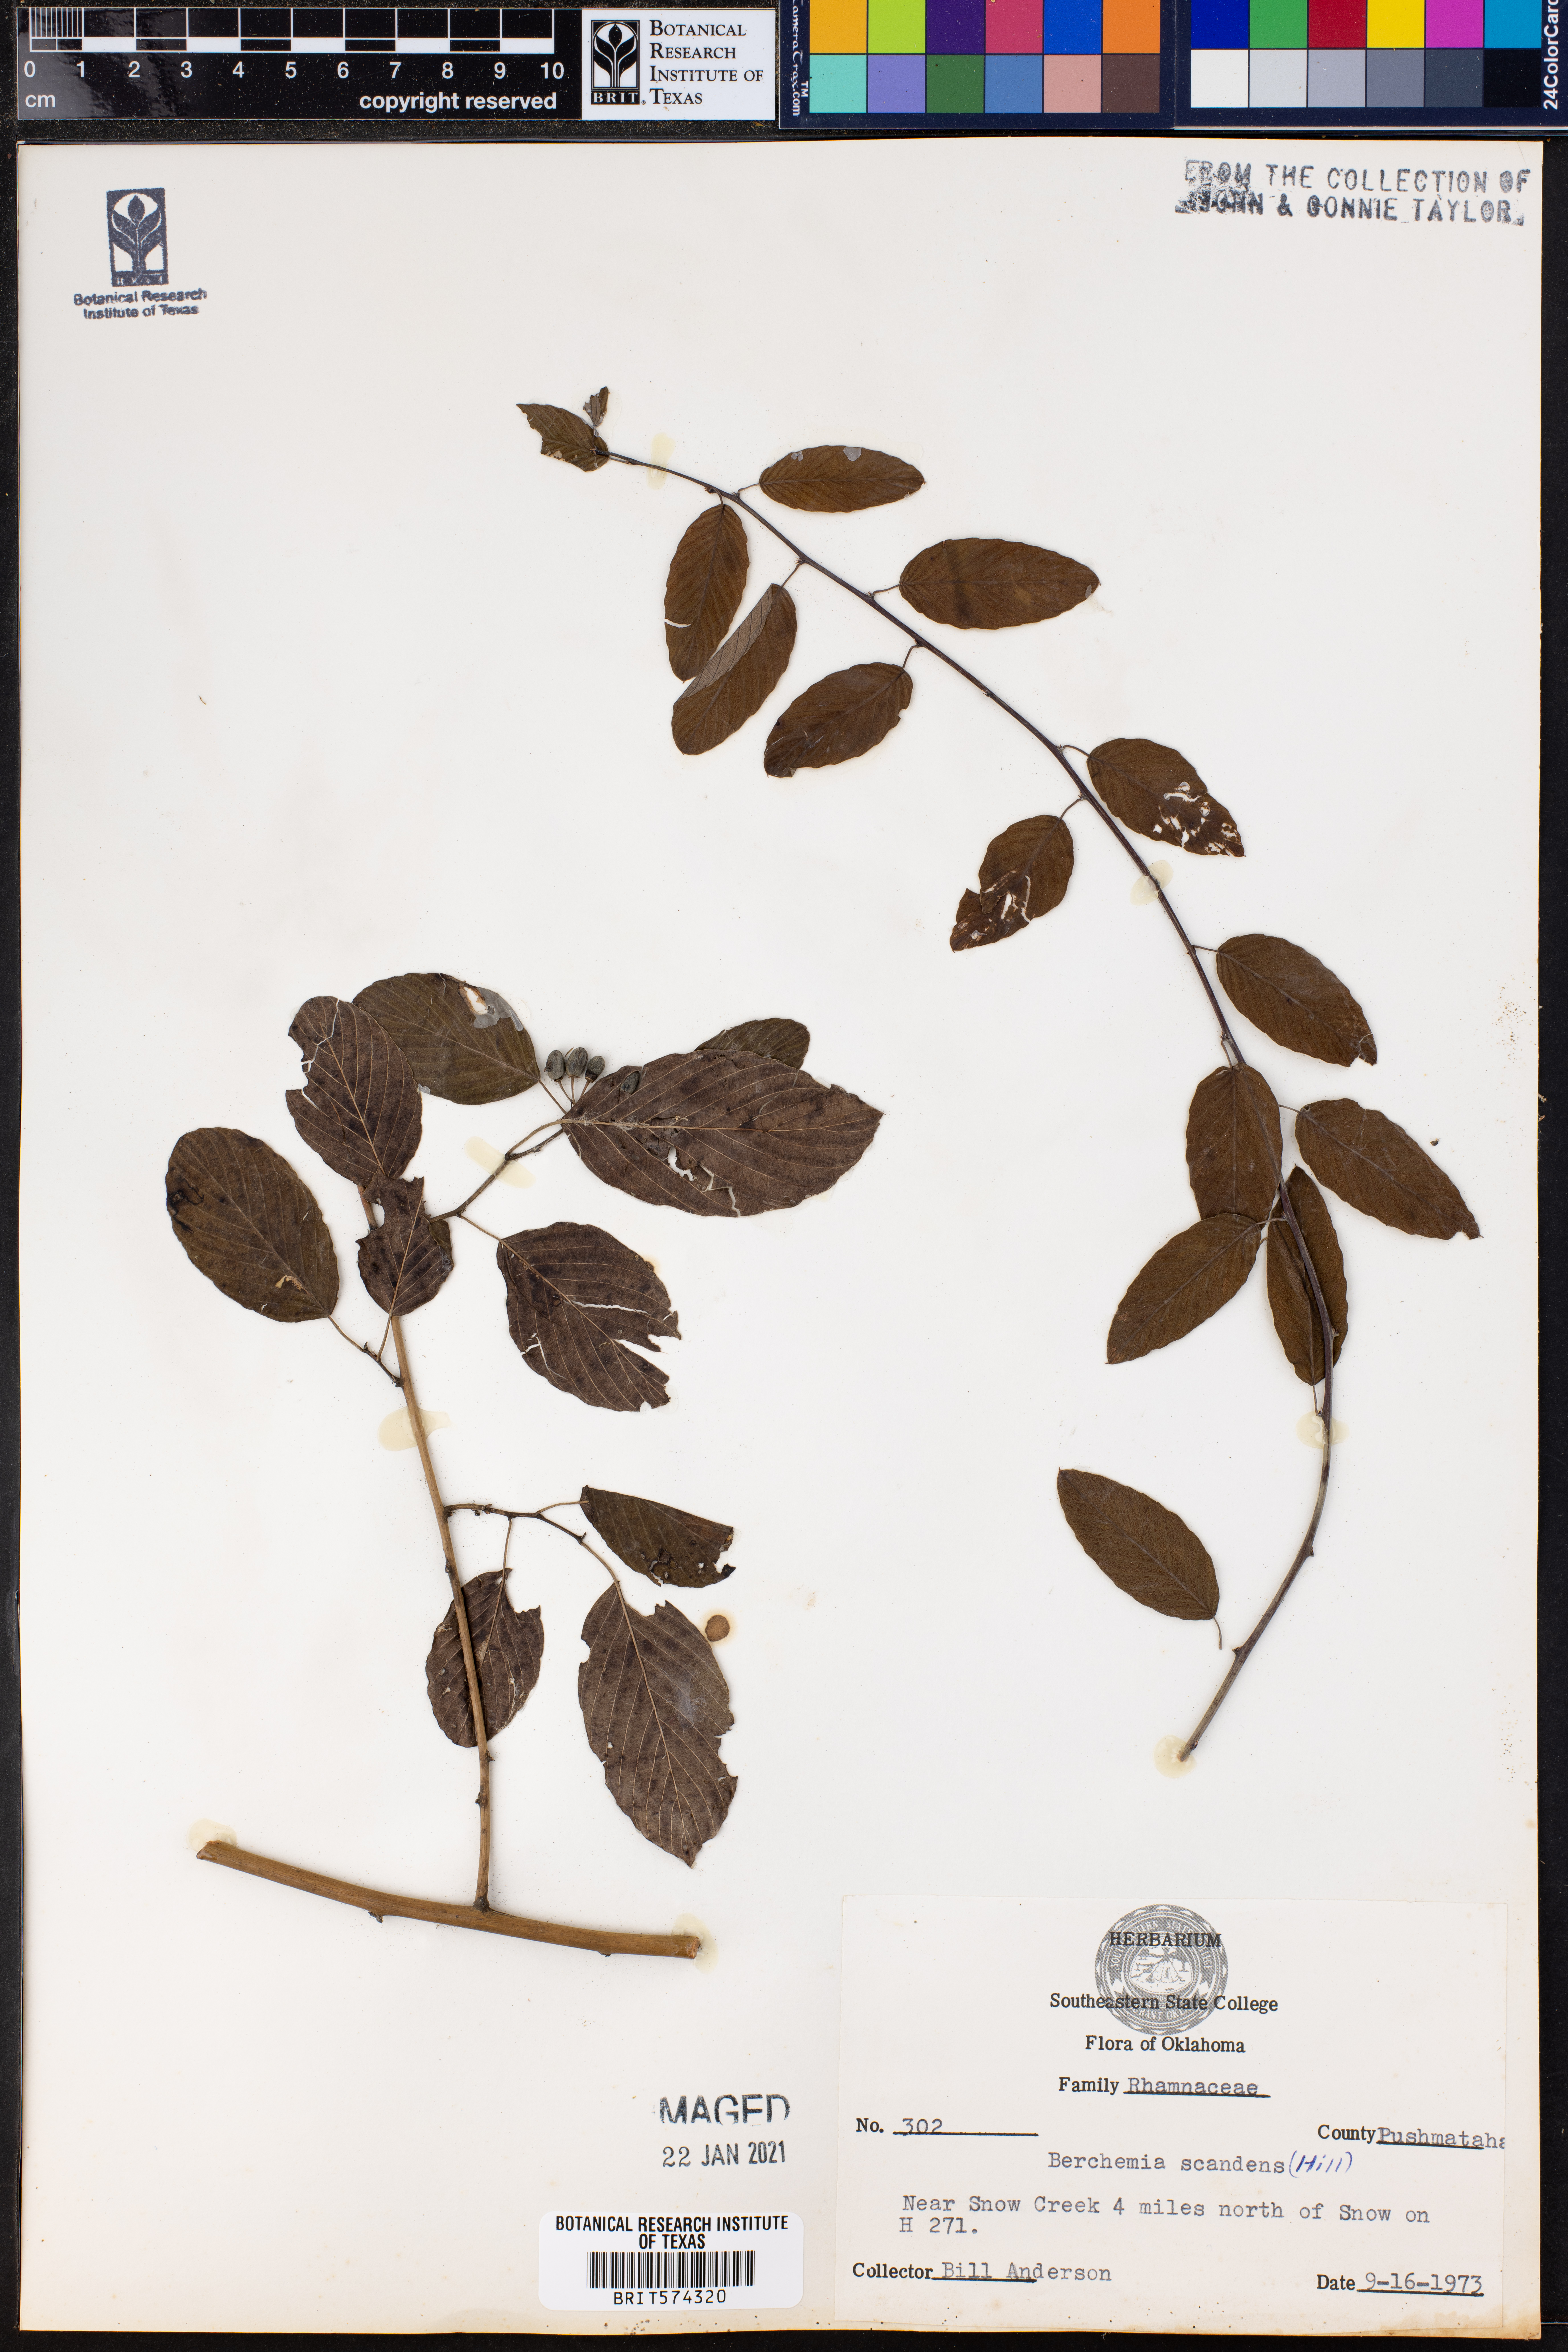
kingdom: Plantae
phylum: Tracheophyta
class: Magnoliopsida
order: Rosales
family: Rhamnaceae
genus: Berchemia
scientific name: Berchemia scandens
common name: Supplejack
